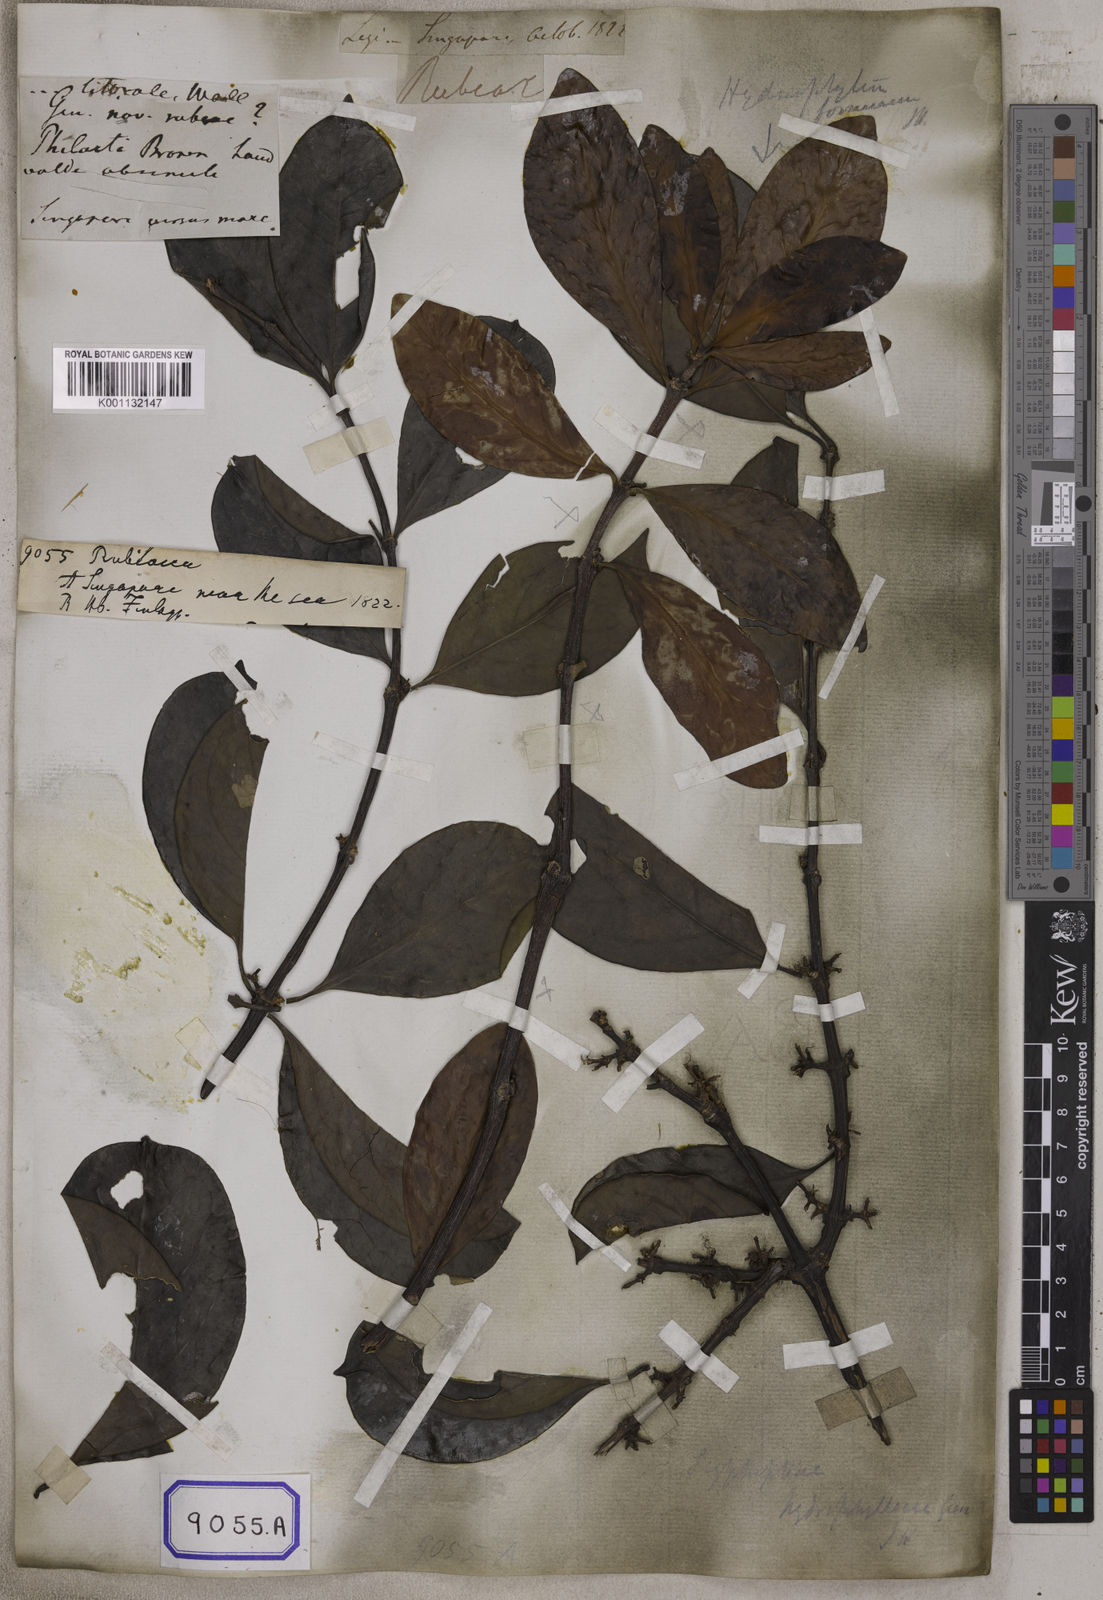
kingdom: Plantae
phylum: Tracheophyta
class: Magnoliopsida
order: Gentianales
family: Rubiaceae
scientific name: Rubiaceae
